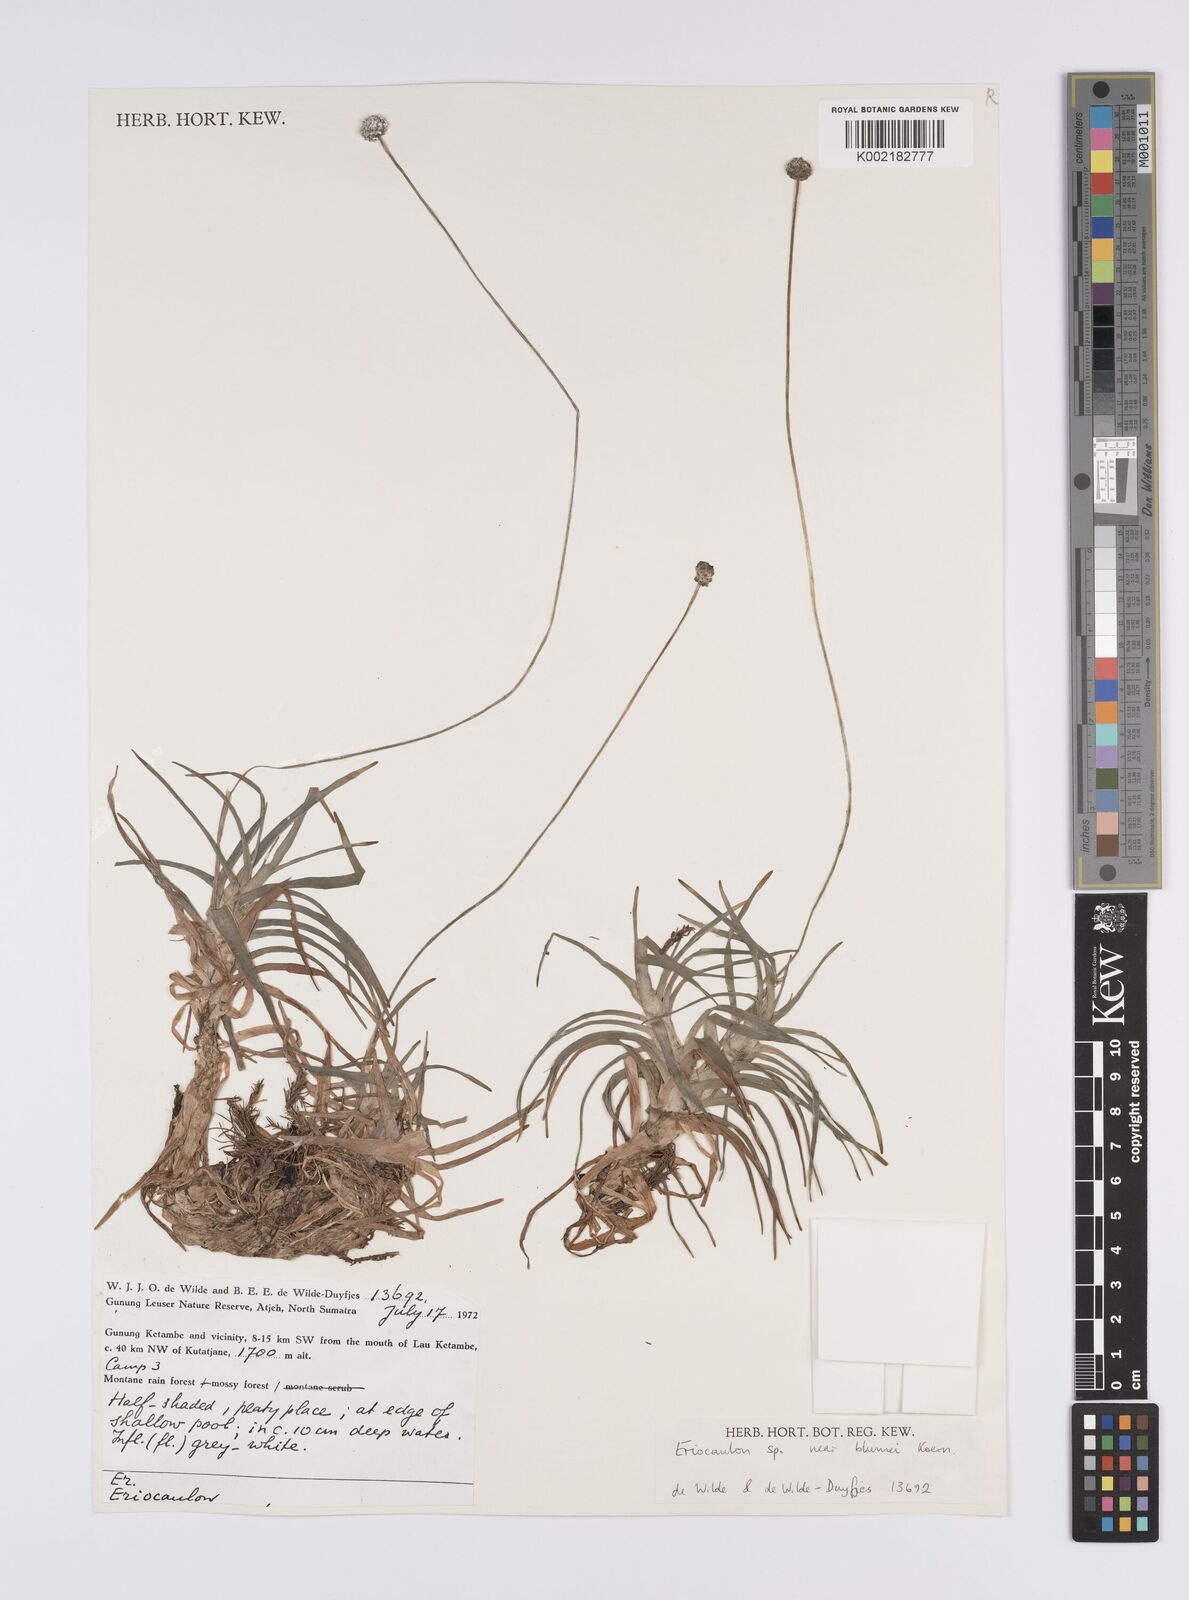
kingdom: Plantae
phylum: Tracheophyta
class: Liliopsida
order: Poales
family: Eriocaulaceae
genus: Eriocaulon
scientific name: Eriocaulon brownianum
